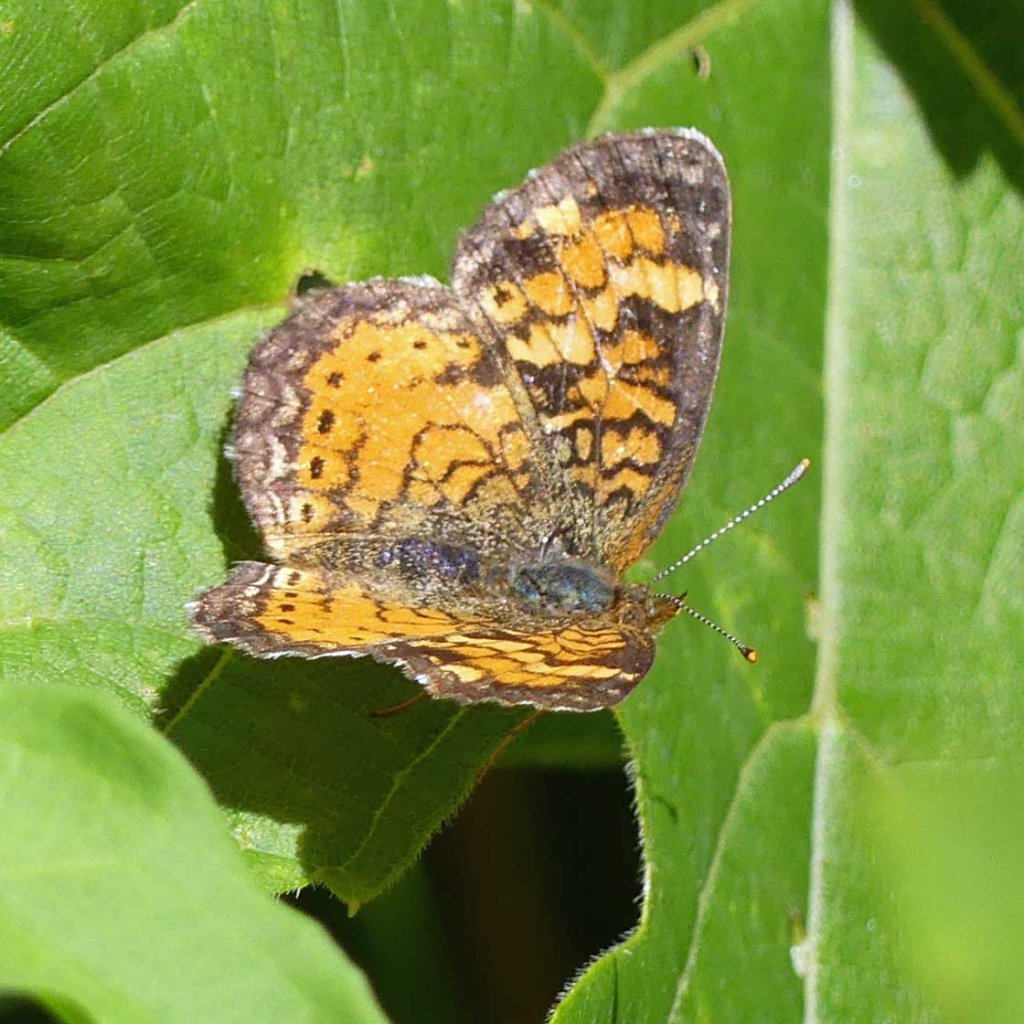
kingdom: Animalia
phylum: Arthropoda
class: Insecta
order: Lepidoptera
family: Nymphalidae
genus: Phyciodes
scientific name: Phyciodes tharos
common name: Northern Crescent
